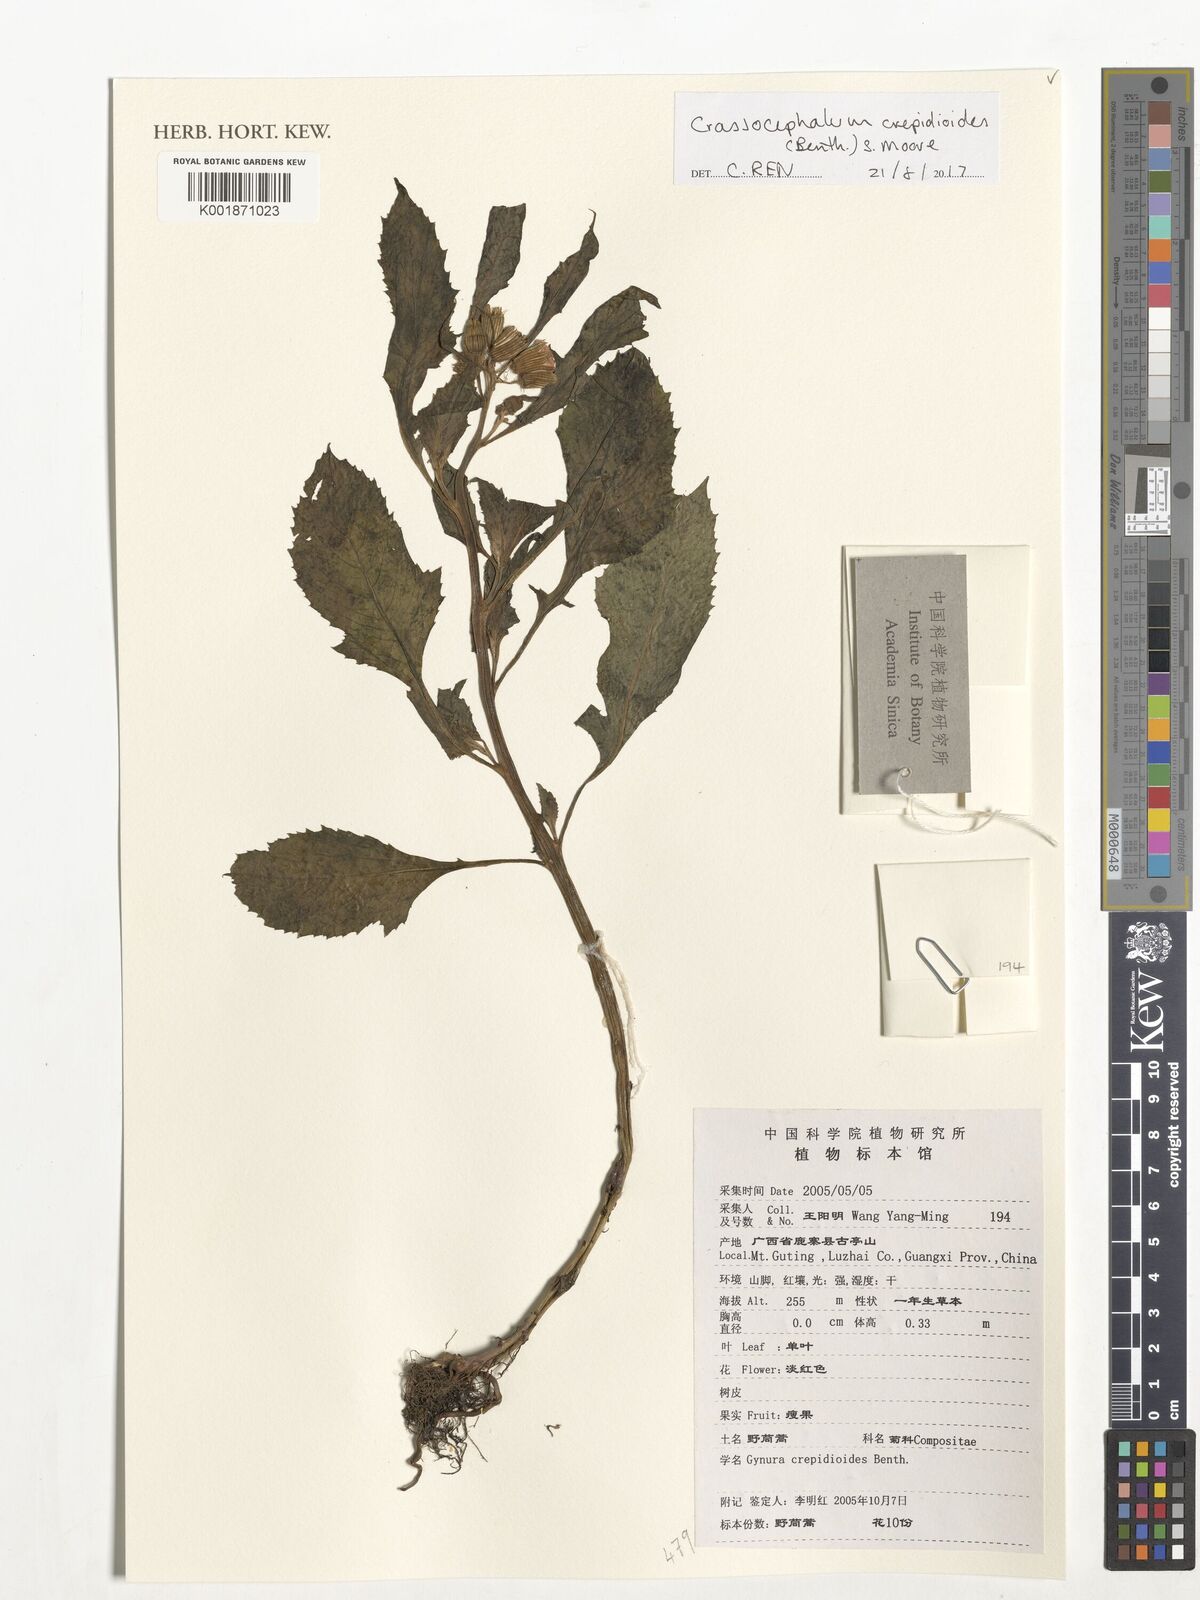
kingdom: Plantae
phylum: Tracheophyta
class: Magnoliopsida
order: Asterales
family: Asteraceae
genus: Crassocephalum
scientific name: Crassocephalum crepidioides
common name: Redflower ragleaf
